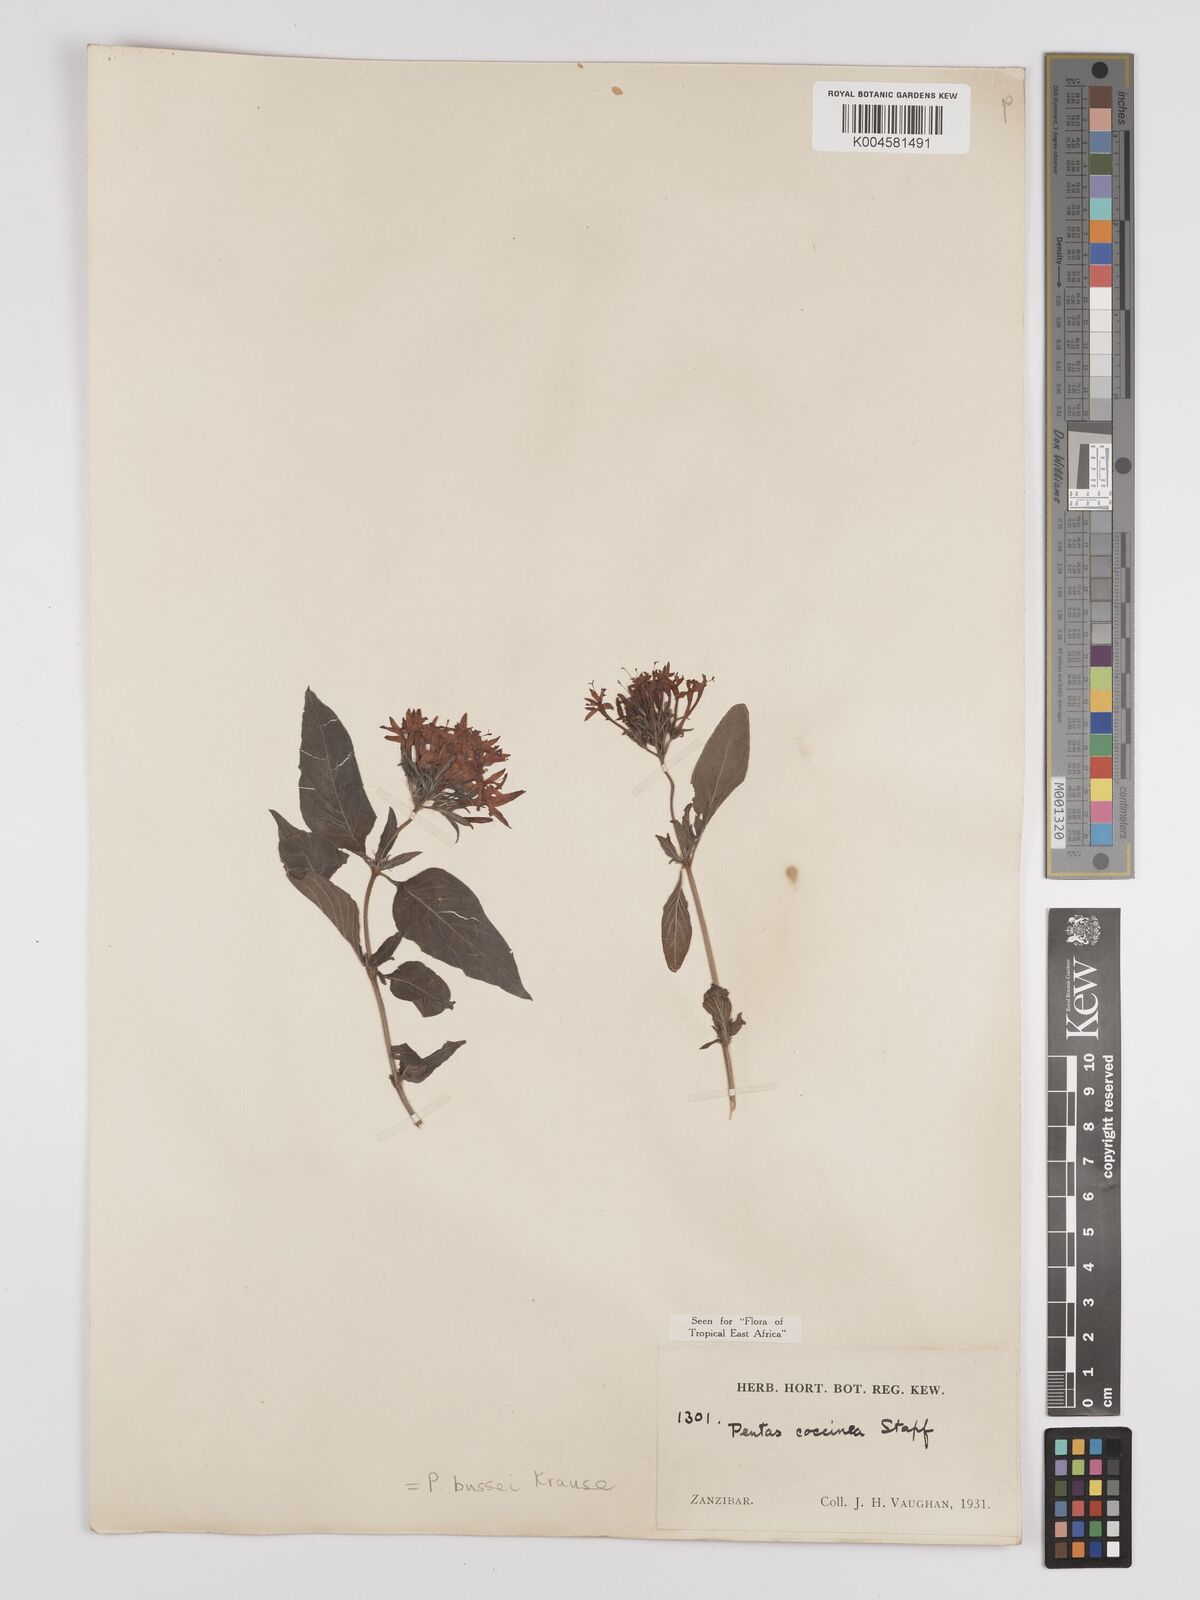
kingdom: Plantae
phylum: Tracheophyta
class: Magnoliopsida
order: Gentianales
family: Rubiaceae
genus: Rhodopentas
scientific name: Rhodopentas bussei
